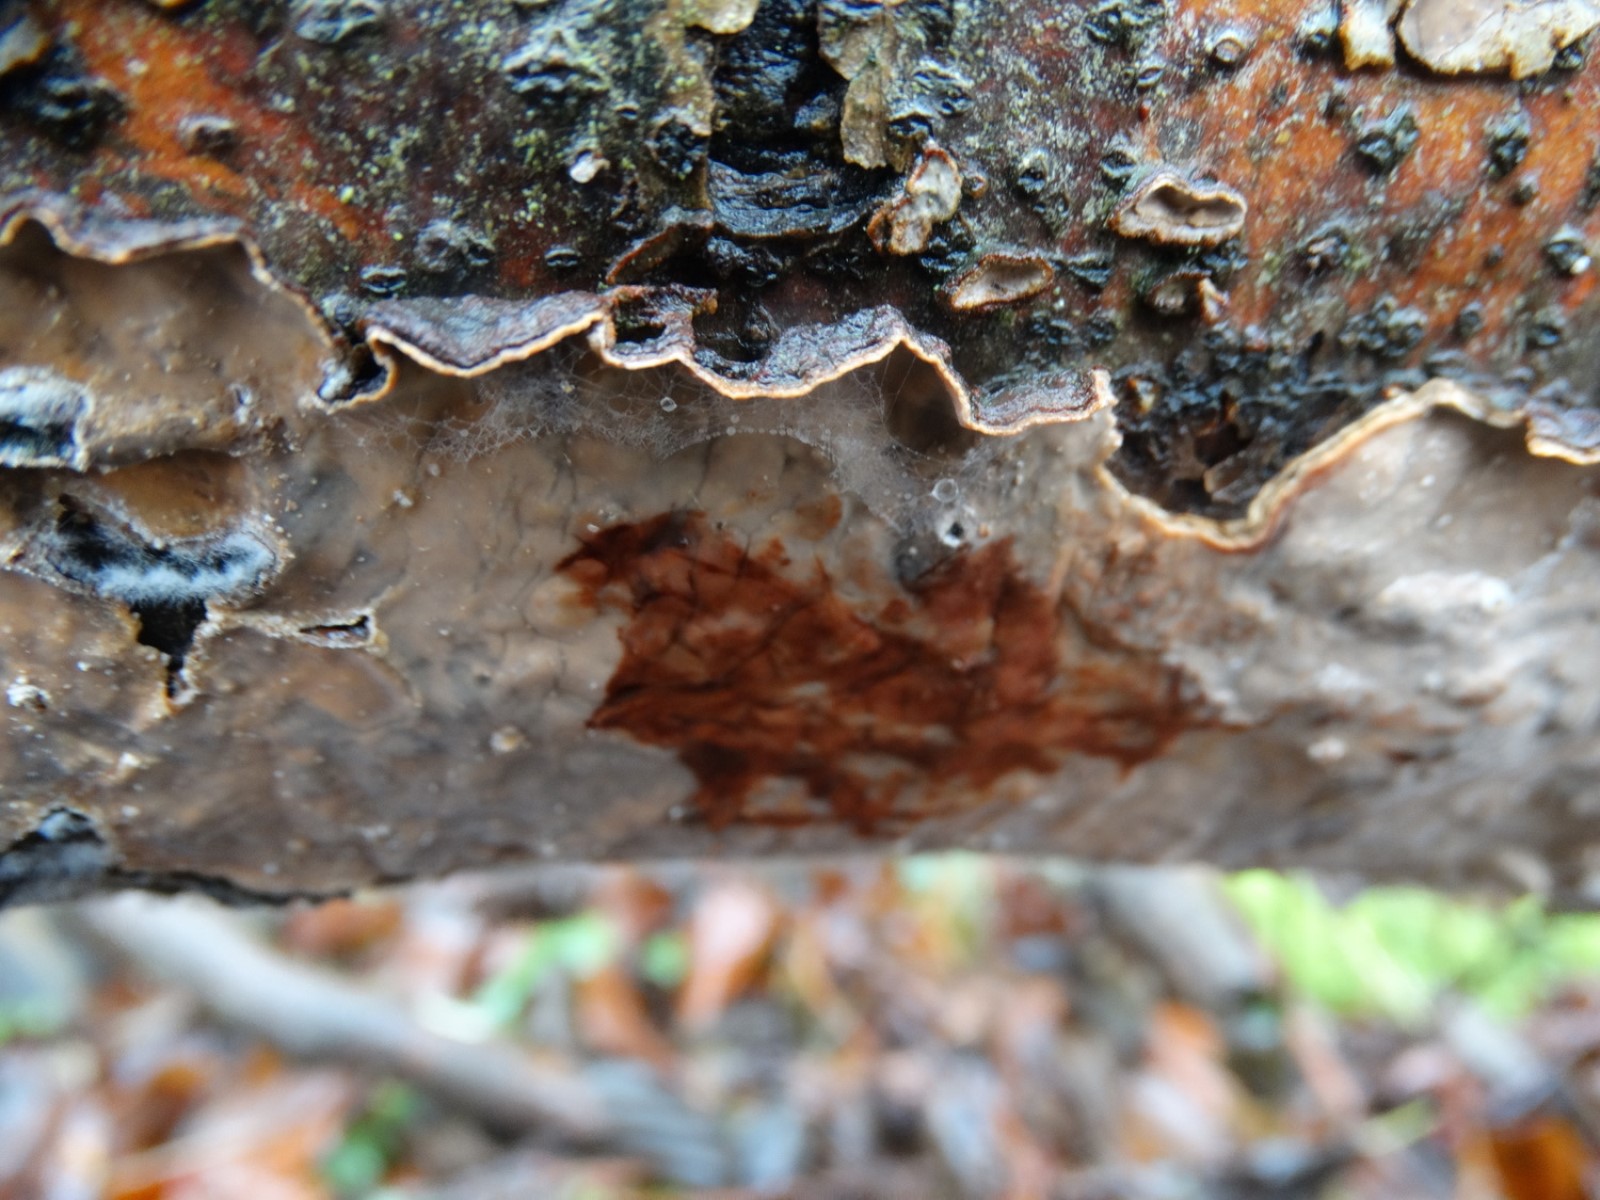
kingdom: Fungi
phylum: Basidiomycota
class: Agaricomycetes
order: Russulales
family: Stereaceae
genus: Stereum
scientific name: Stereum rugosum
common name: rynket lædersvamp
